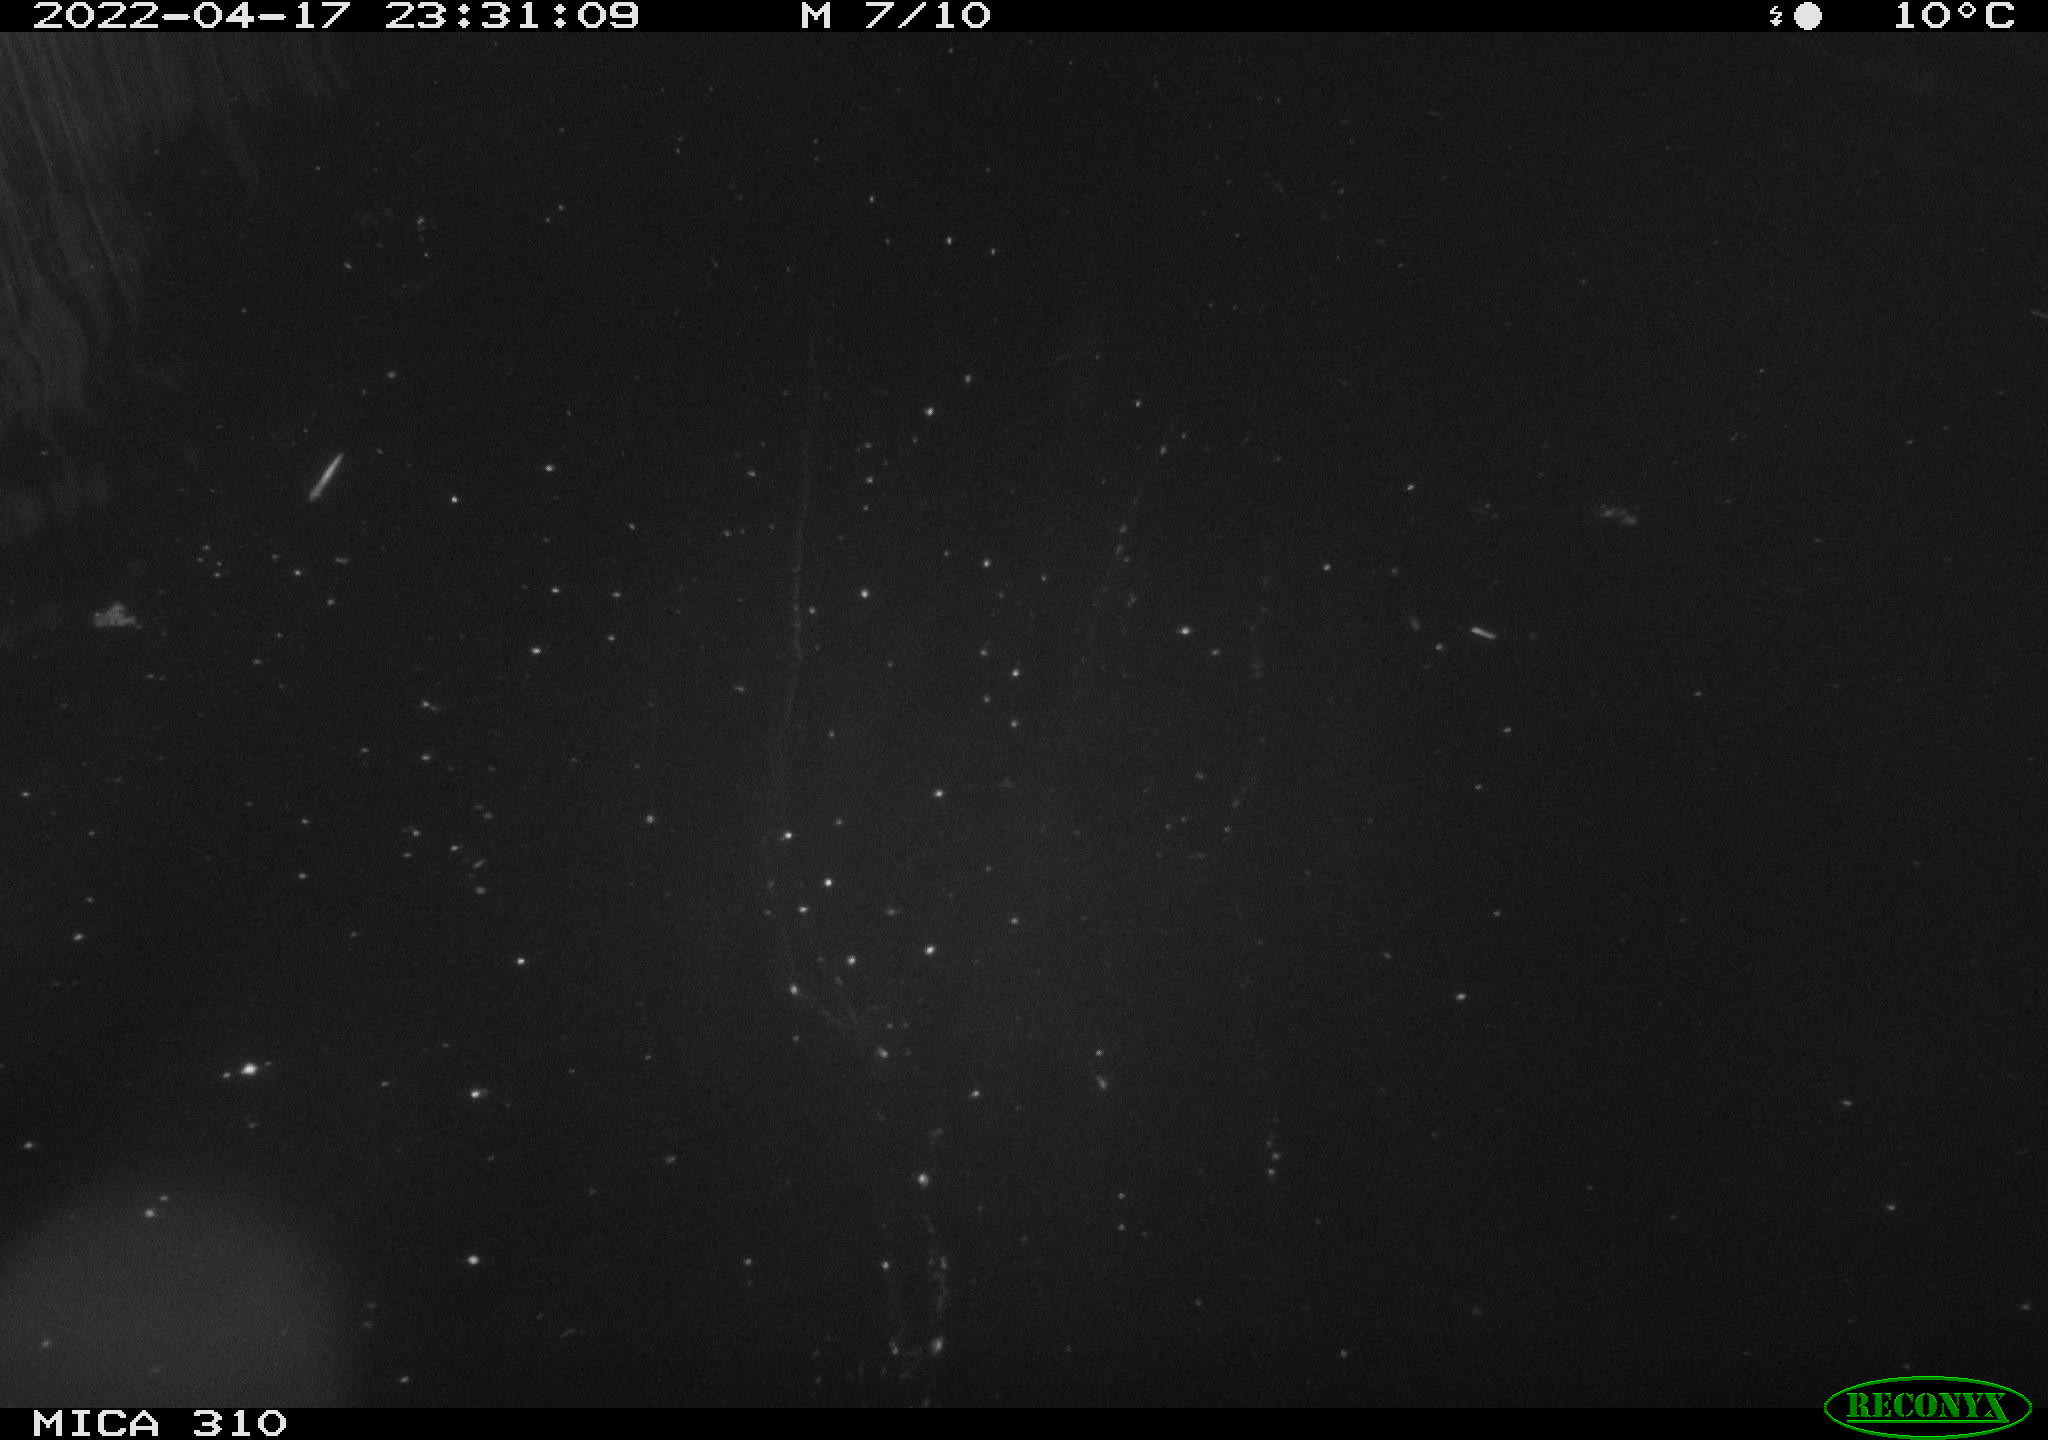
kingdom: Animalia
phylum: Chordata
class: Aves
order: Anseriformes
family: Anatidae
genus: Anas
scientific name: Anas platyrhynchos
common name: Mallard
